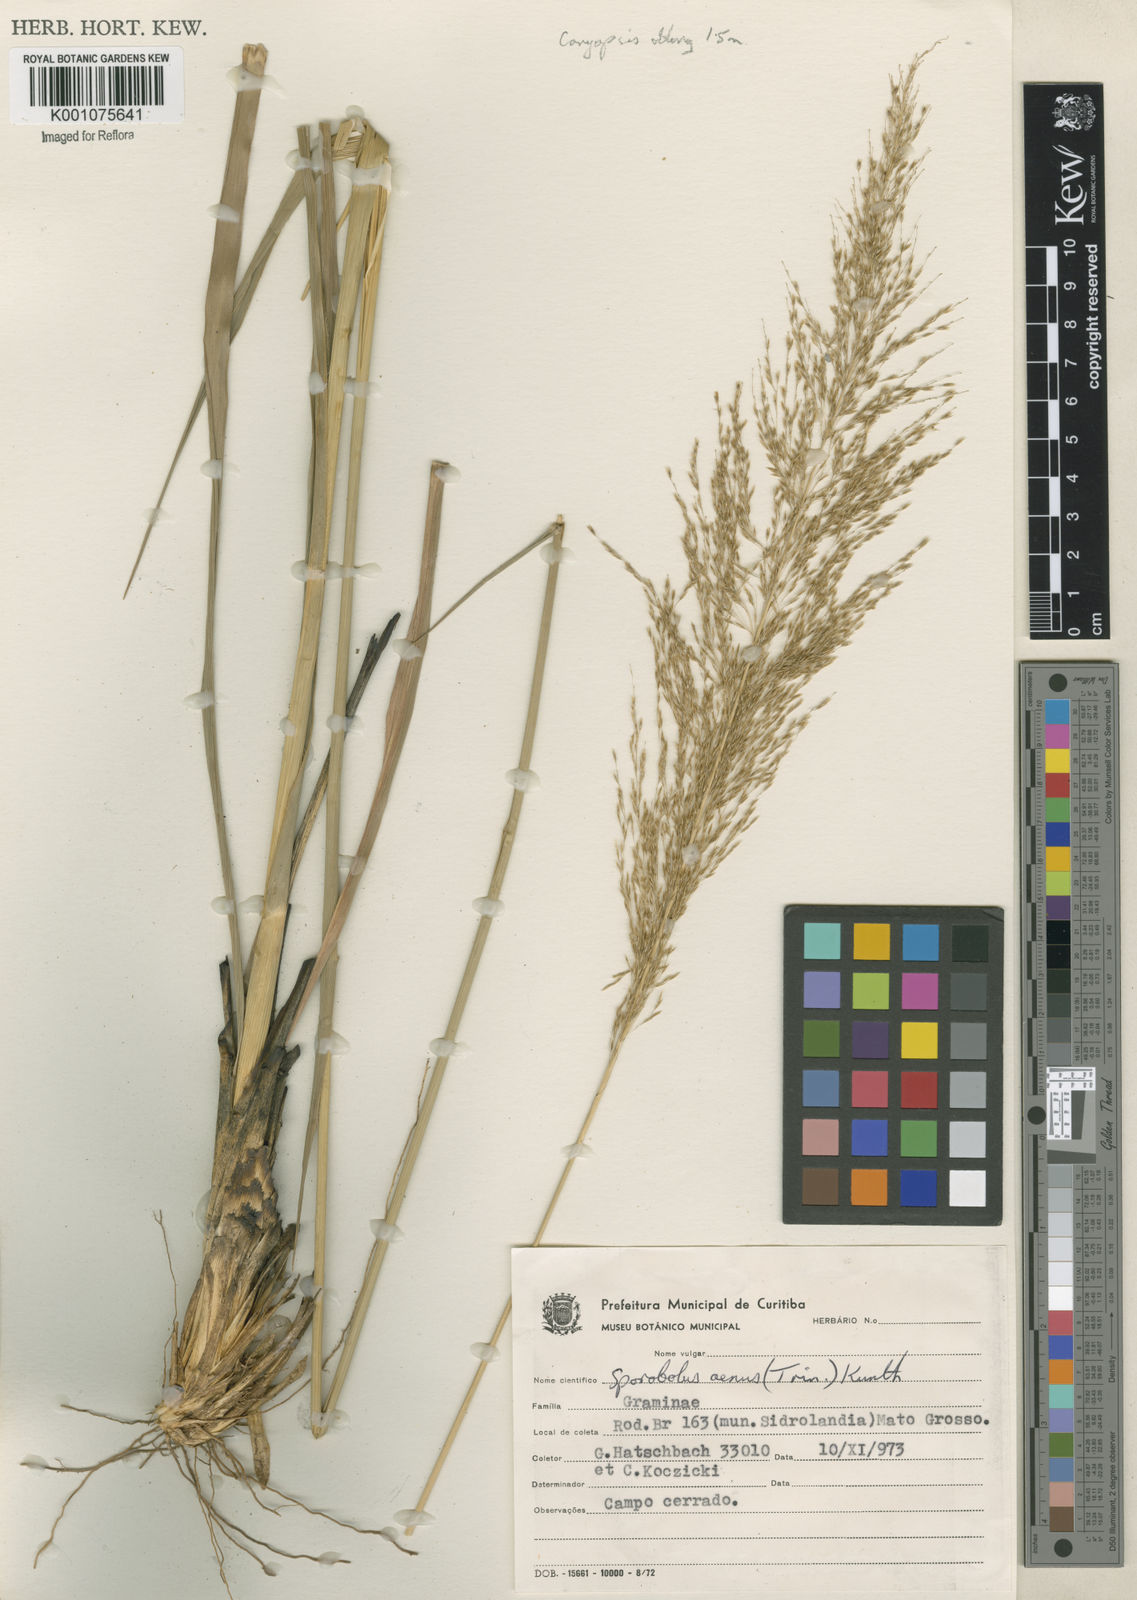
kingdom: Plantae
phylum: Tracheophyta
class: Liliopsida
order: Poales
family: Poaceae
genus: Sporobolus
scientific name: Sporobolus aeneus
